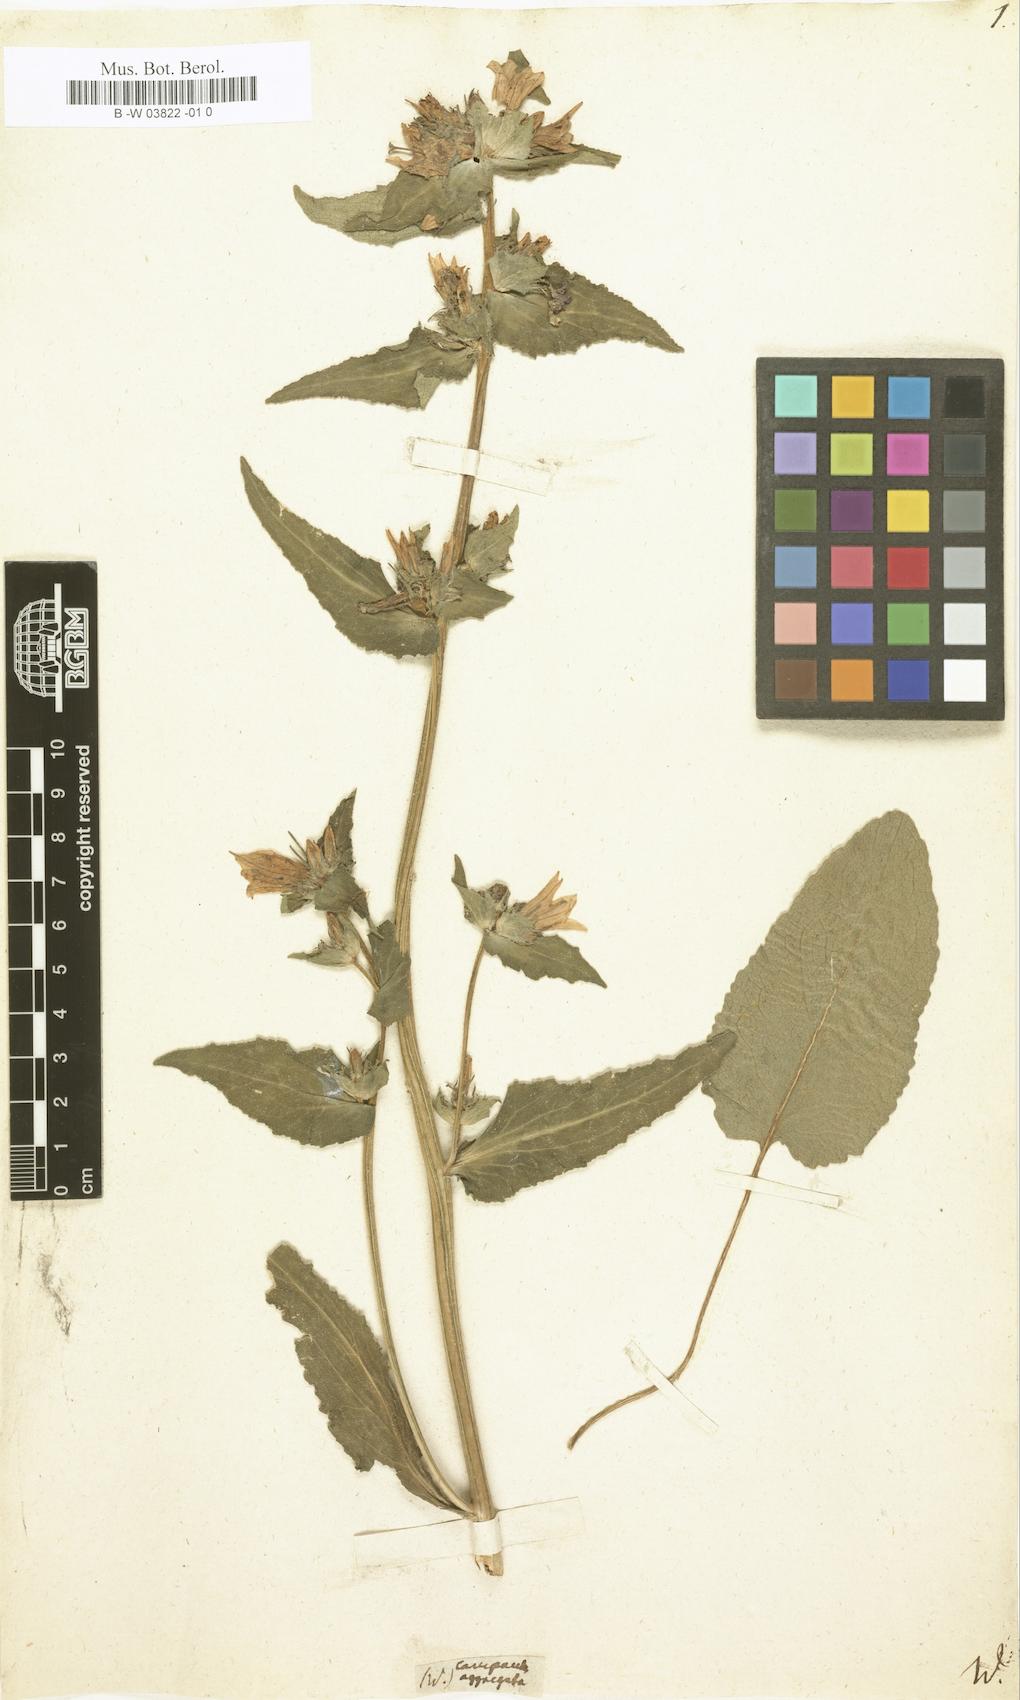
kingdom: Plantae
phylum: Tracheophyta
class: Magnoliopsida
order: Asterales
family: Campanulaceae
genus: Campanula
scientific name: Campanula glomerata
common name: Clustered bellflower
